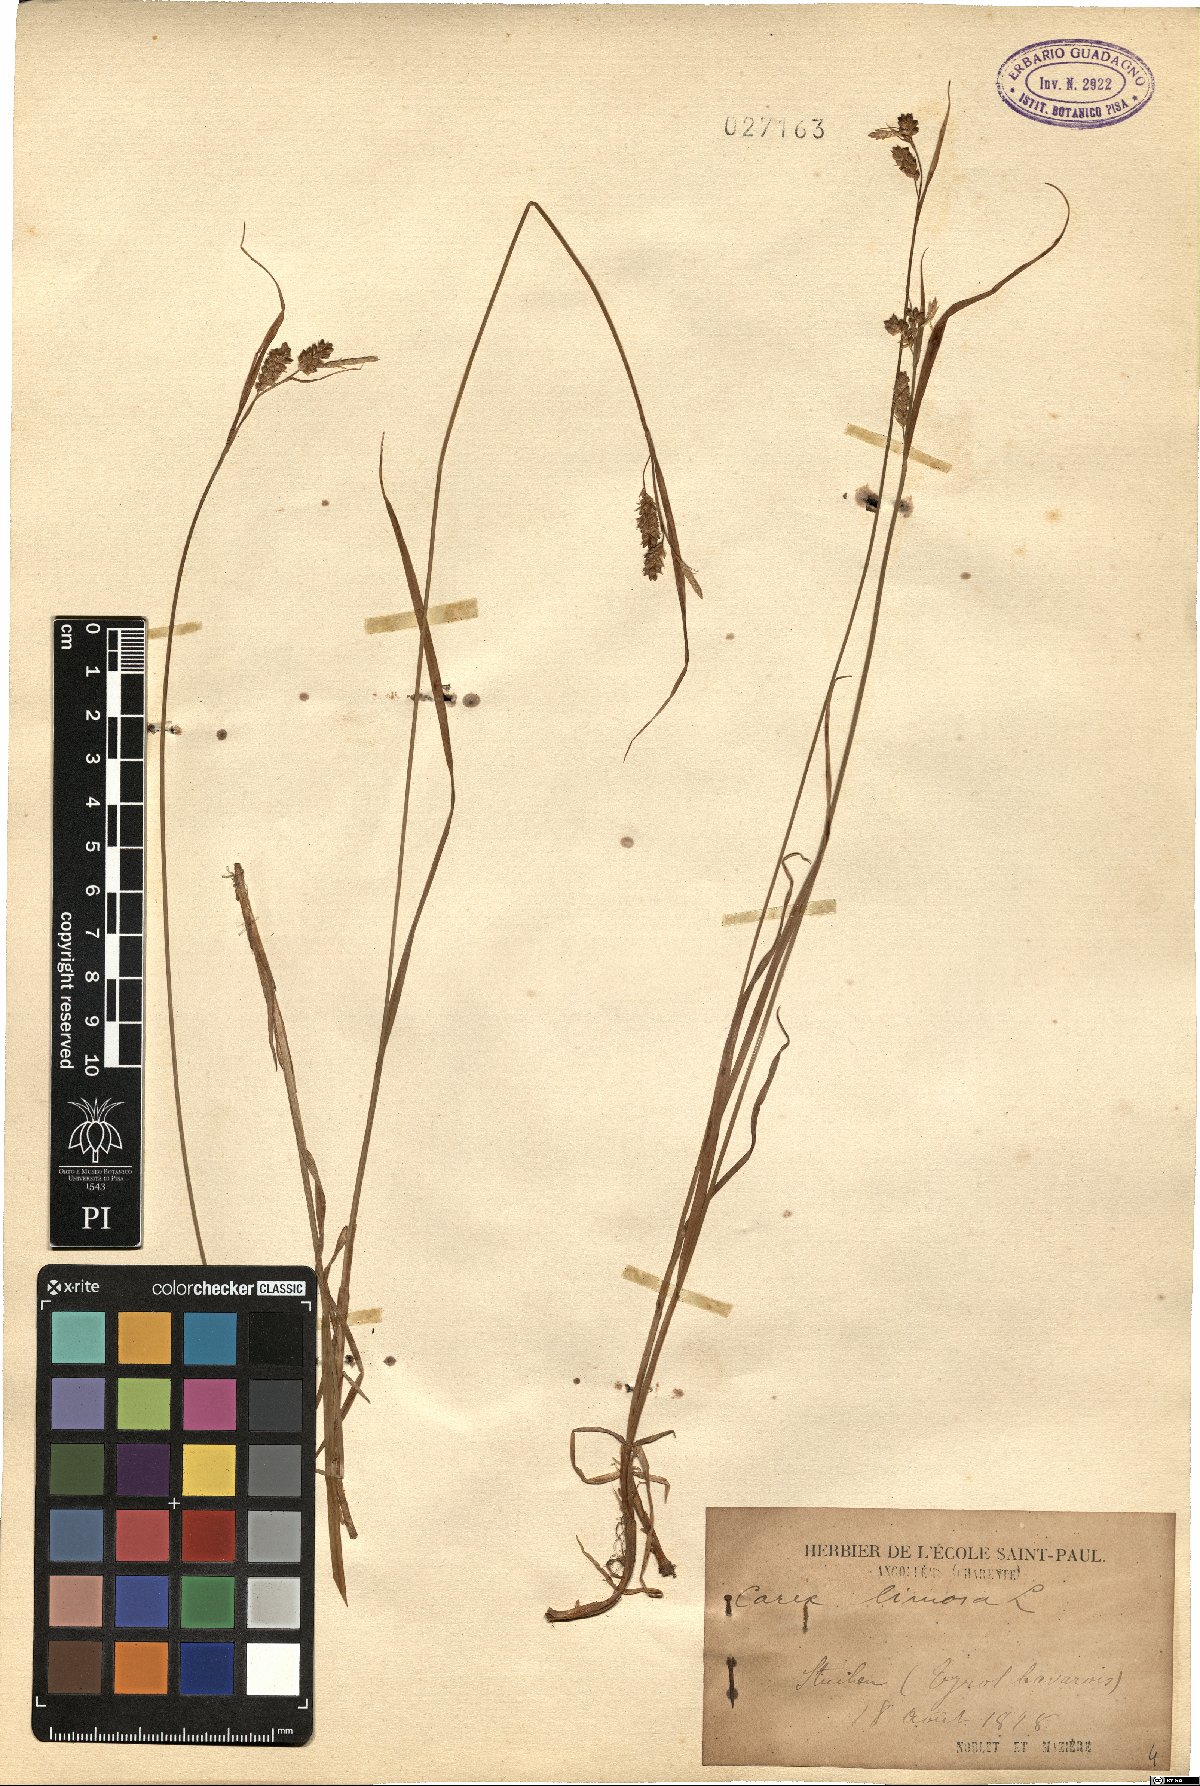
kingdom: Plantae
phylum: Tracheophyta
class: Liliopsida
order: Poales
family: Cyperaceae
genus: Carex
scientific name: Carex limosa
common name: Bog sedge
